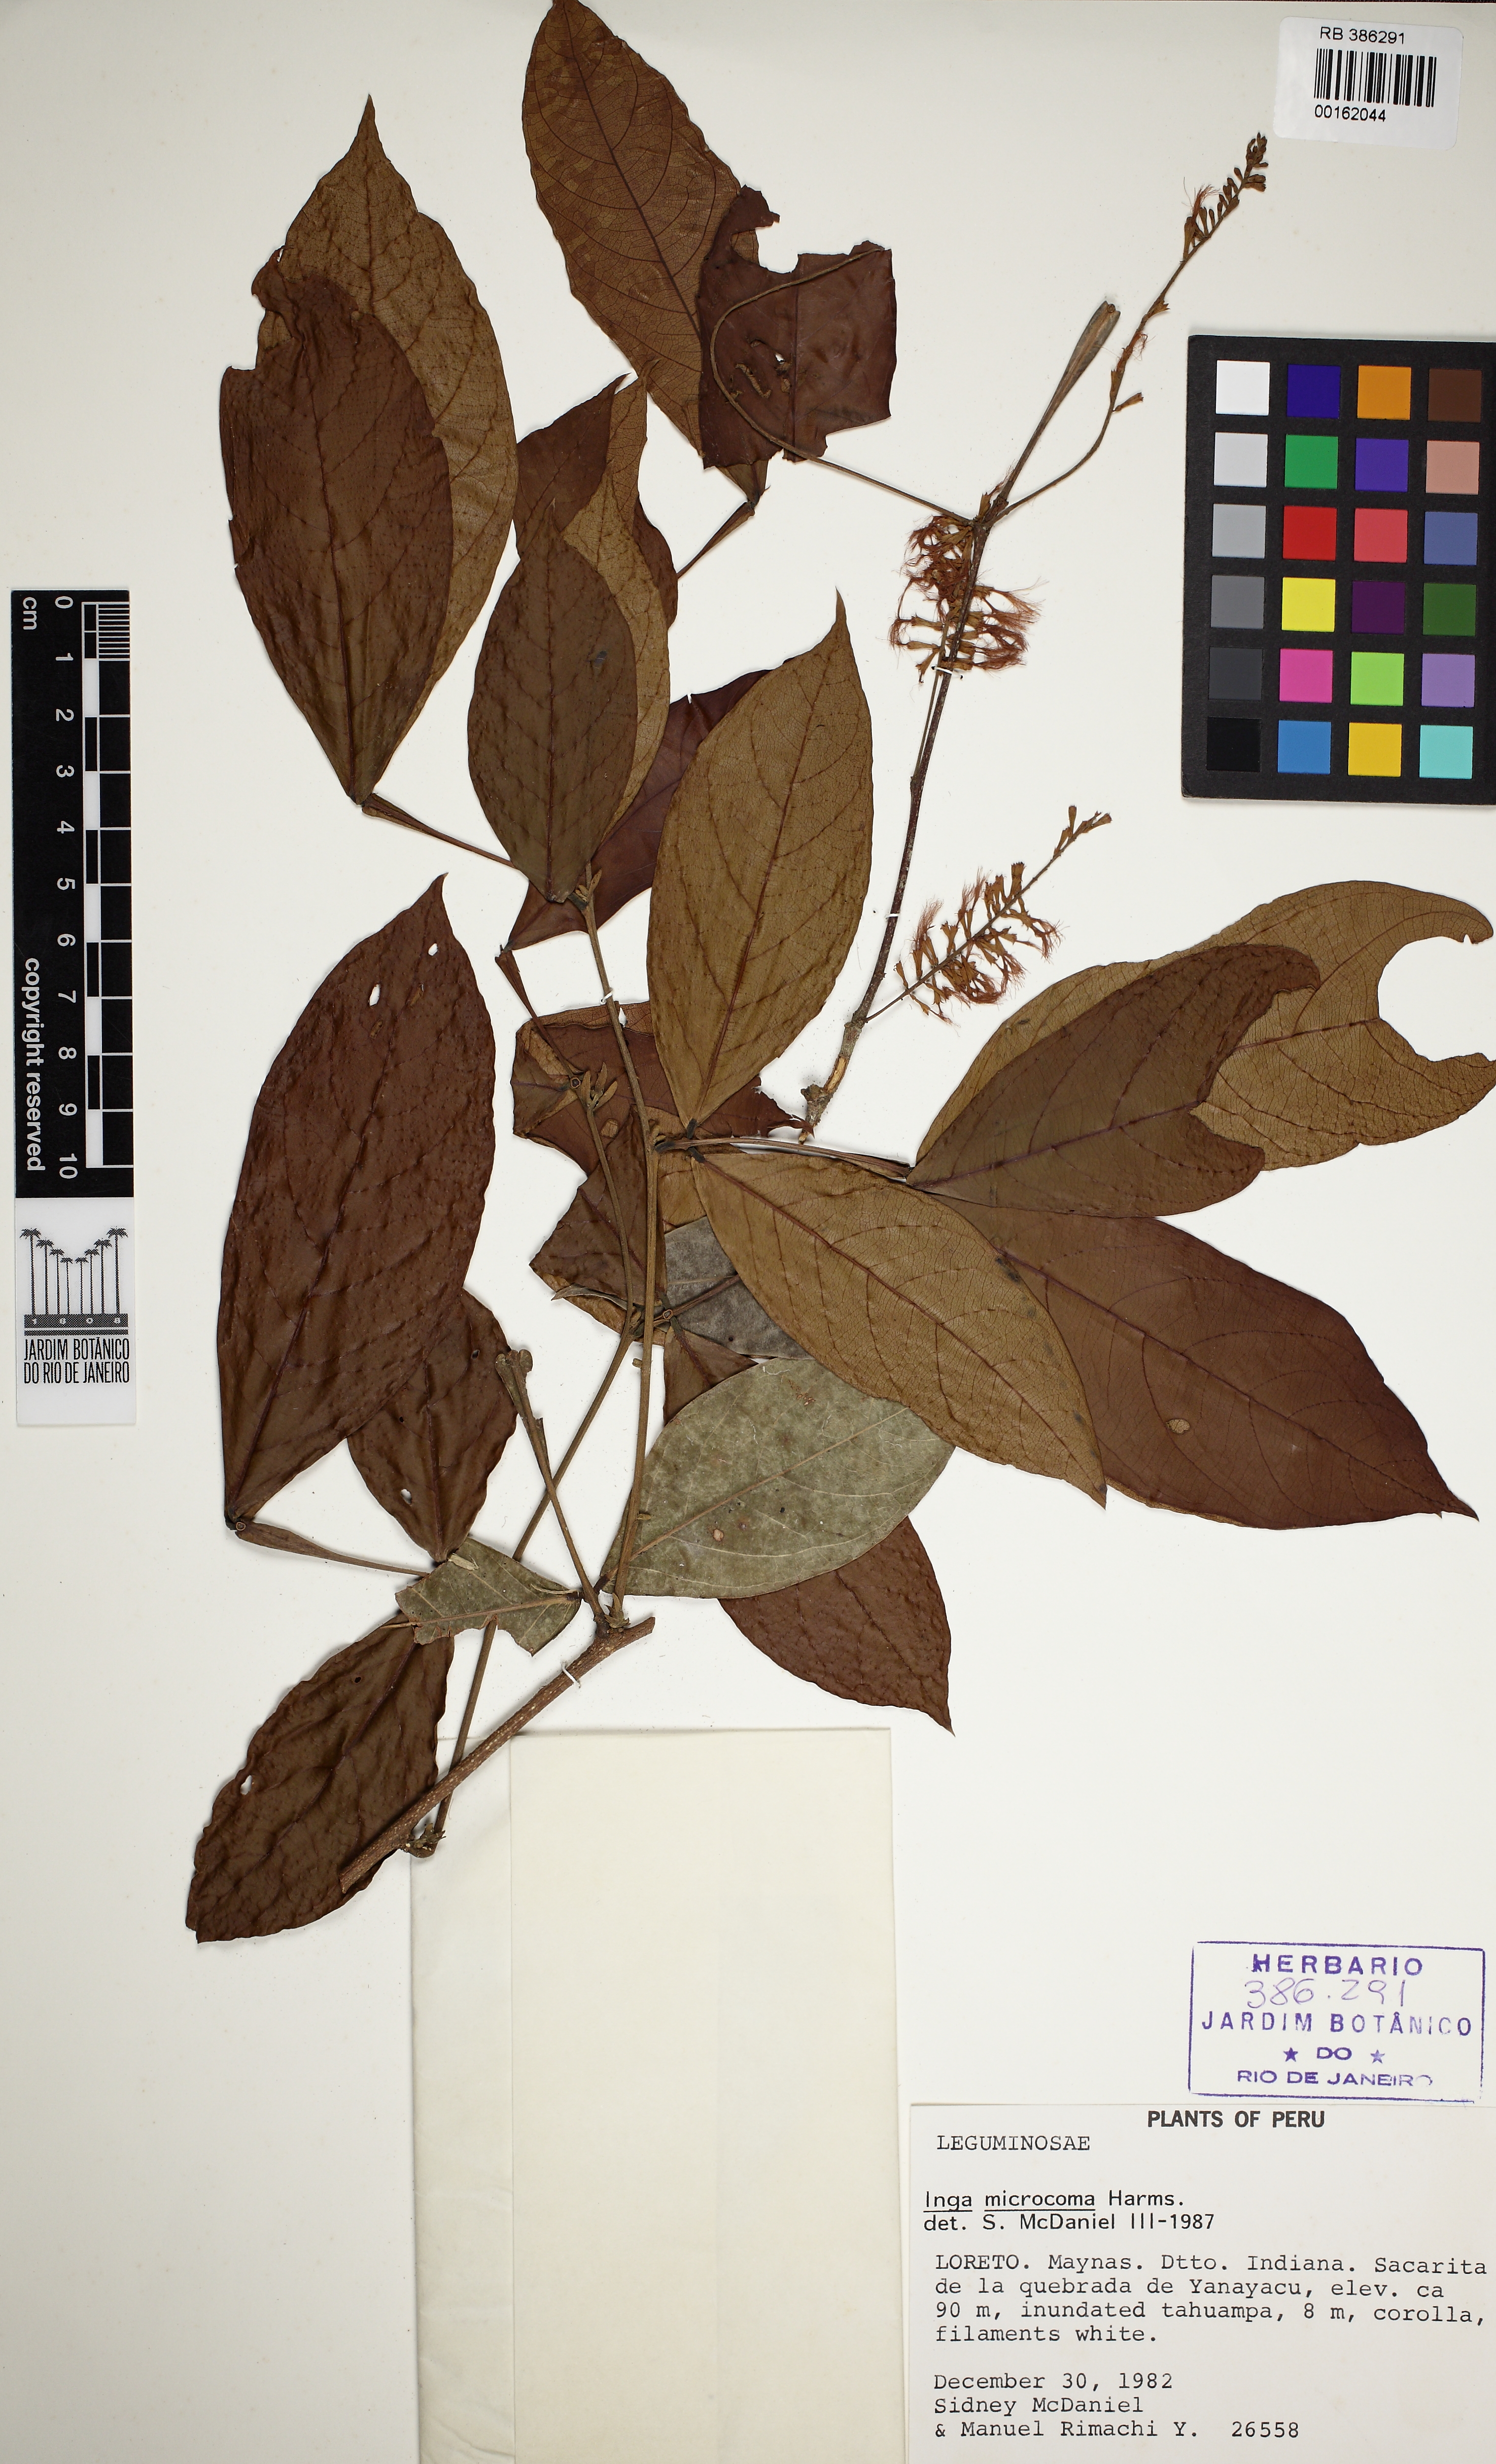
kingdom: Plantae
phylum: Tracheophyta
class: Magnoliopsida
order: Fabales
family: Fabaceae
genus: Inga
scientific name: Inga microcoma
